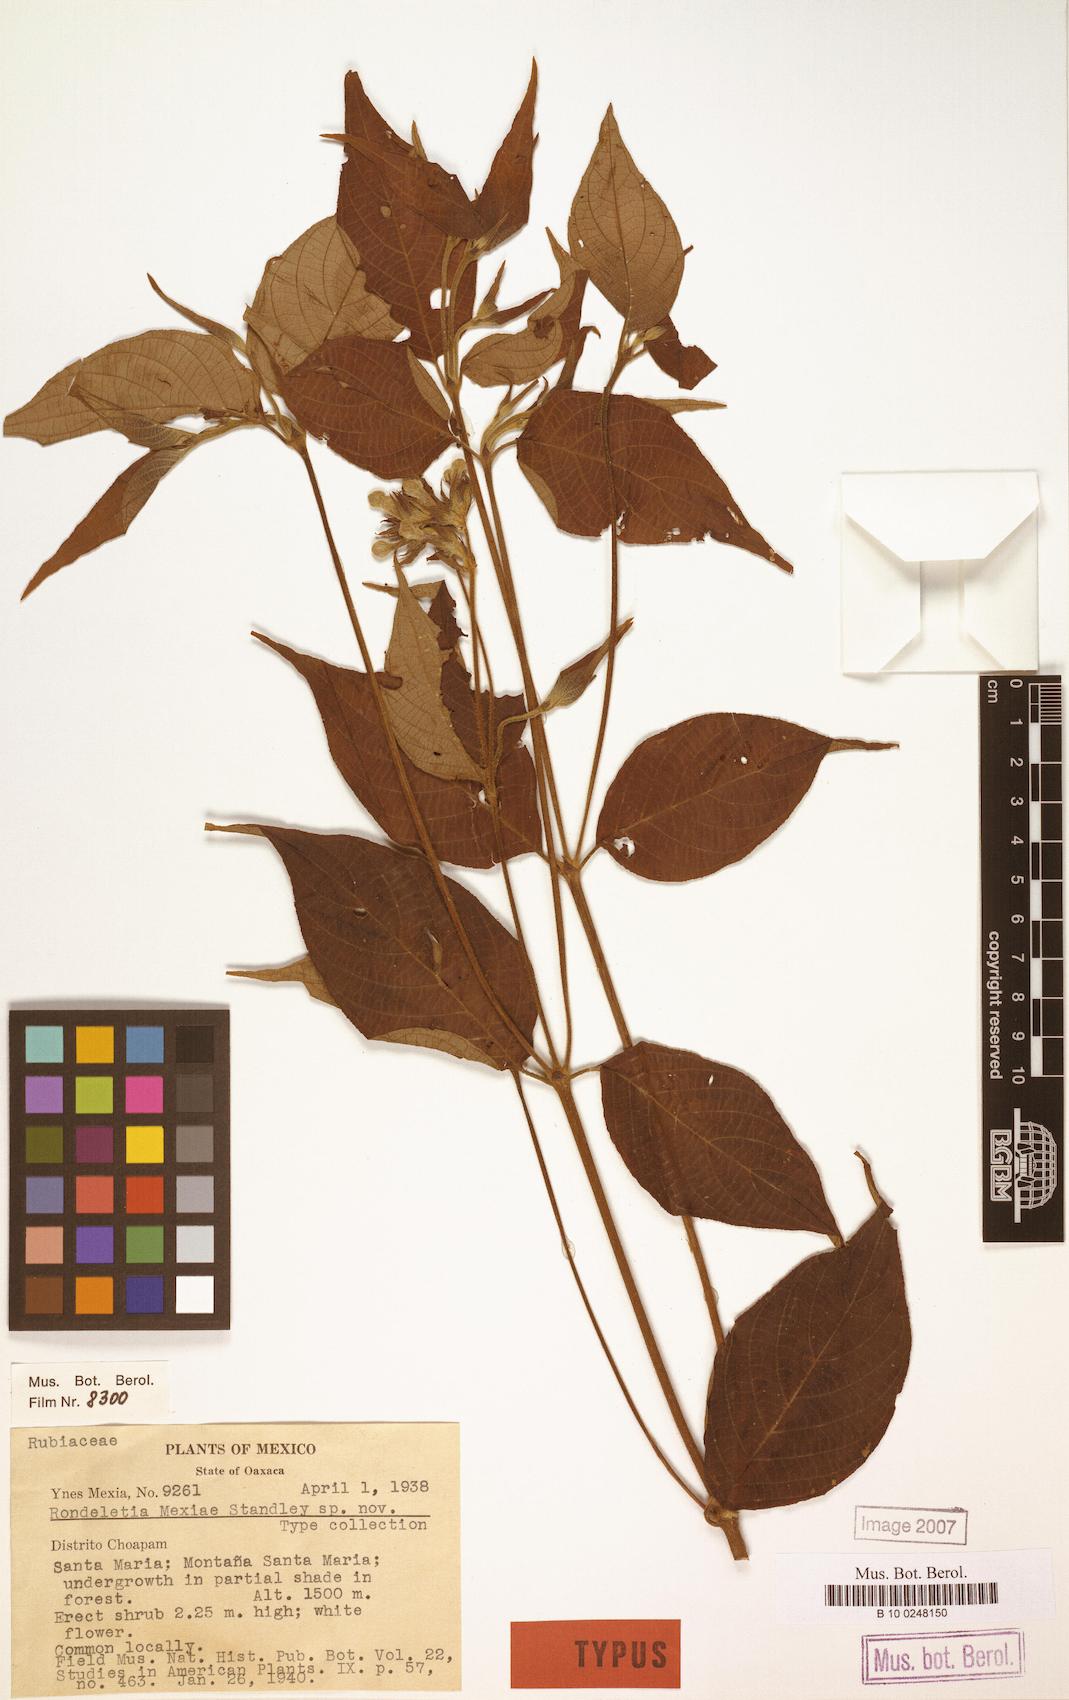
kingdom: Plantae
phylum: Tracheophyta
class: Magnoliopsida
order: Gentianales
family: Rubiaceae
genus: Arachnothryx
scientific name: Arachnothryx scabra
